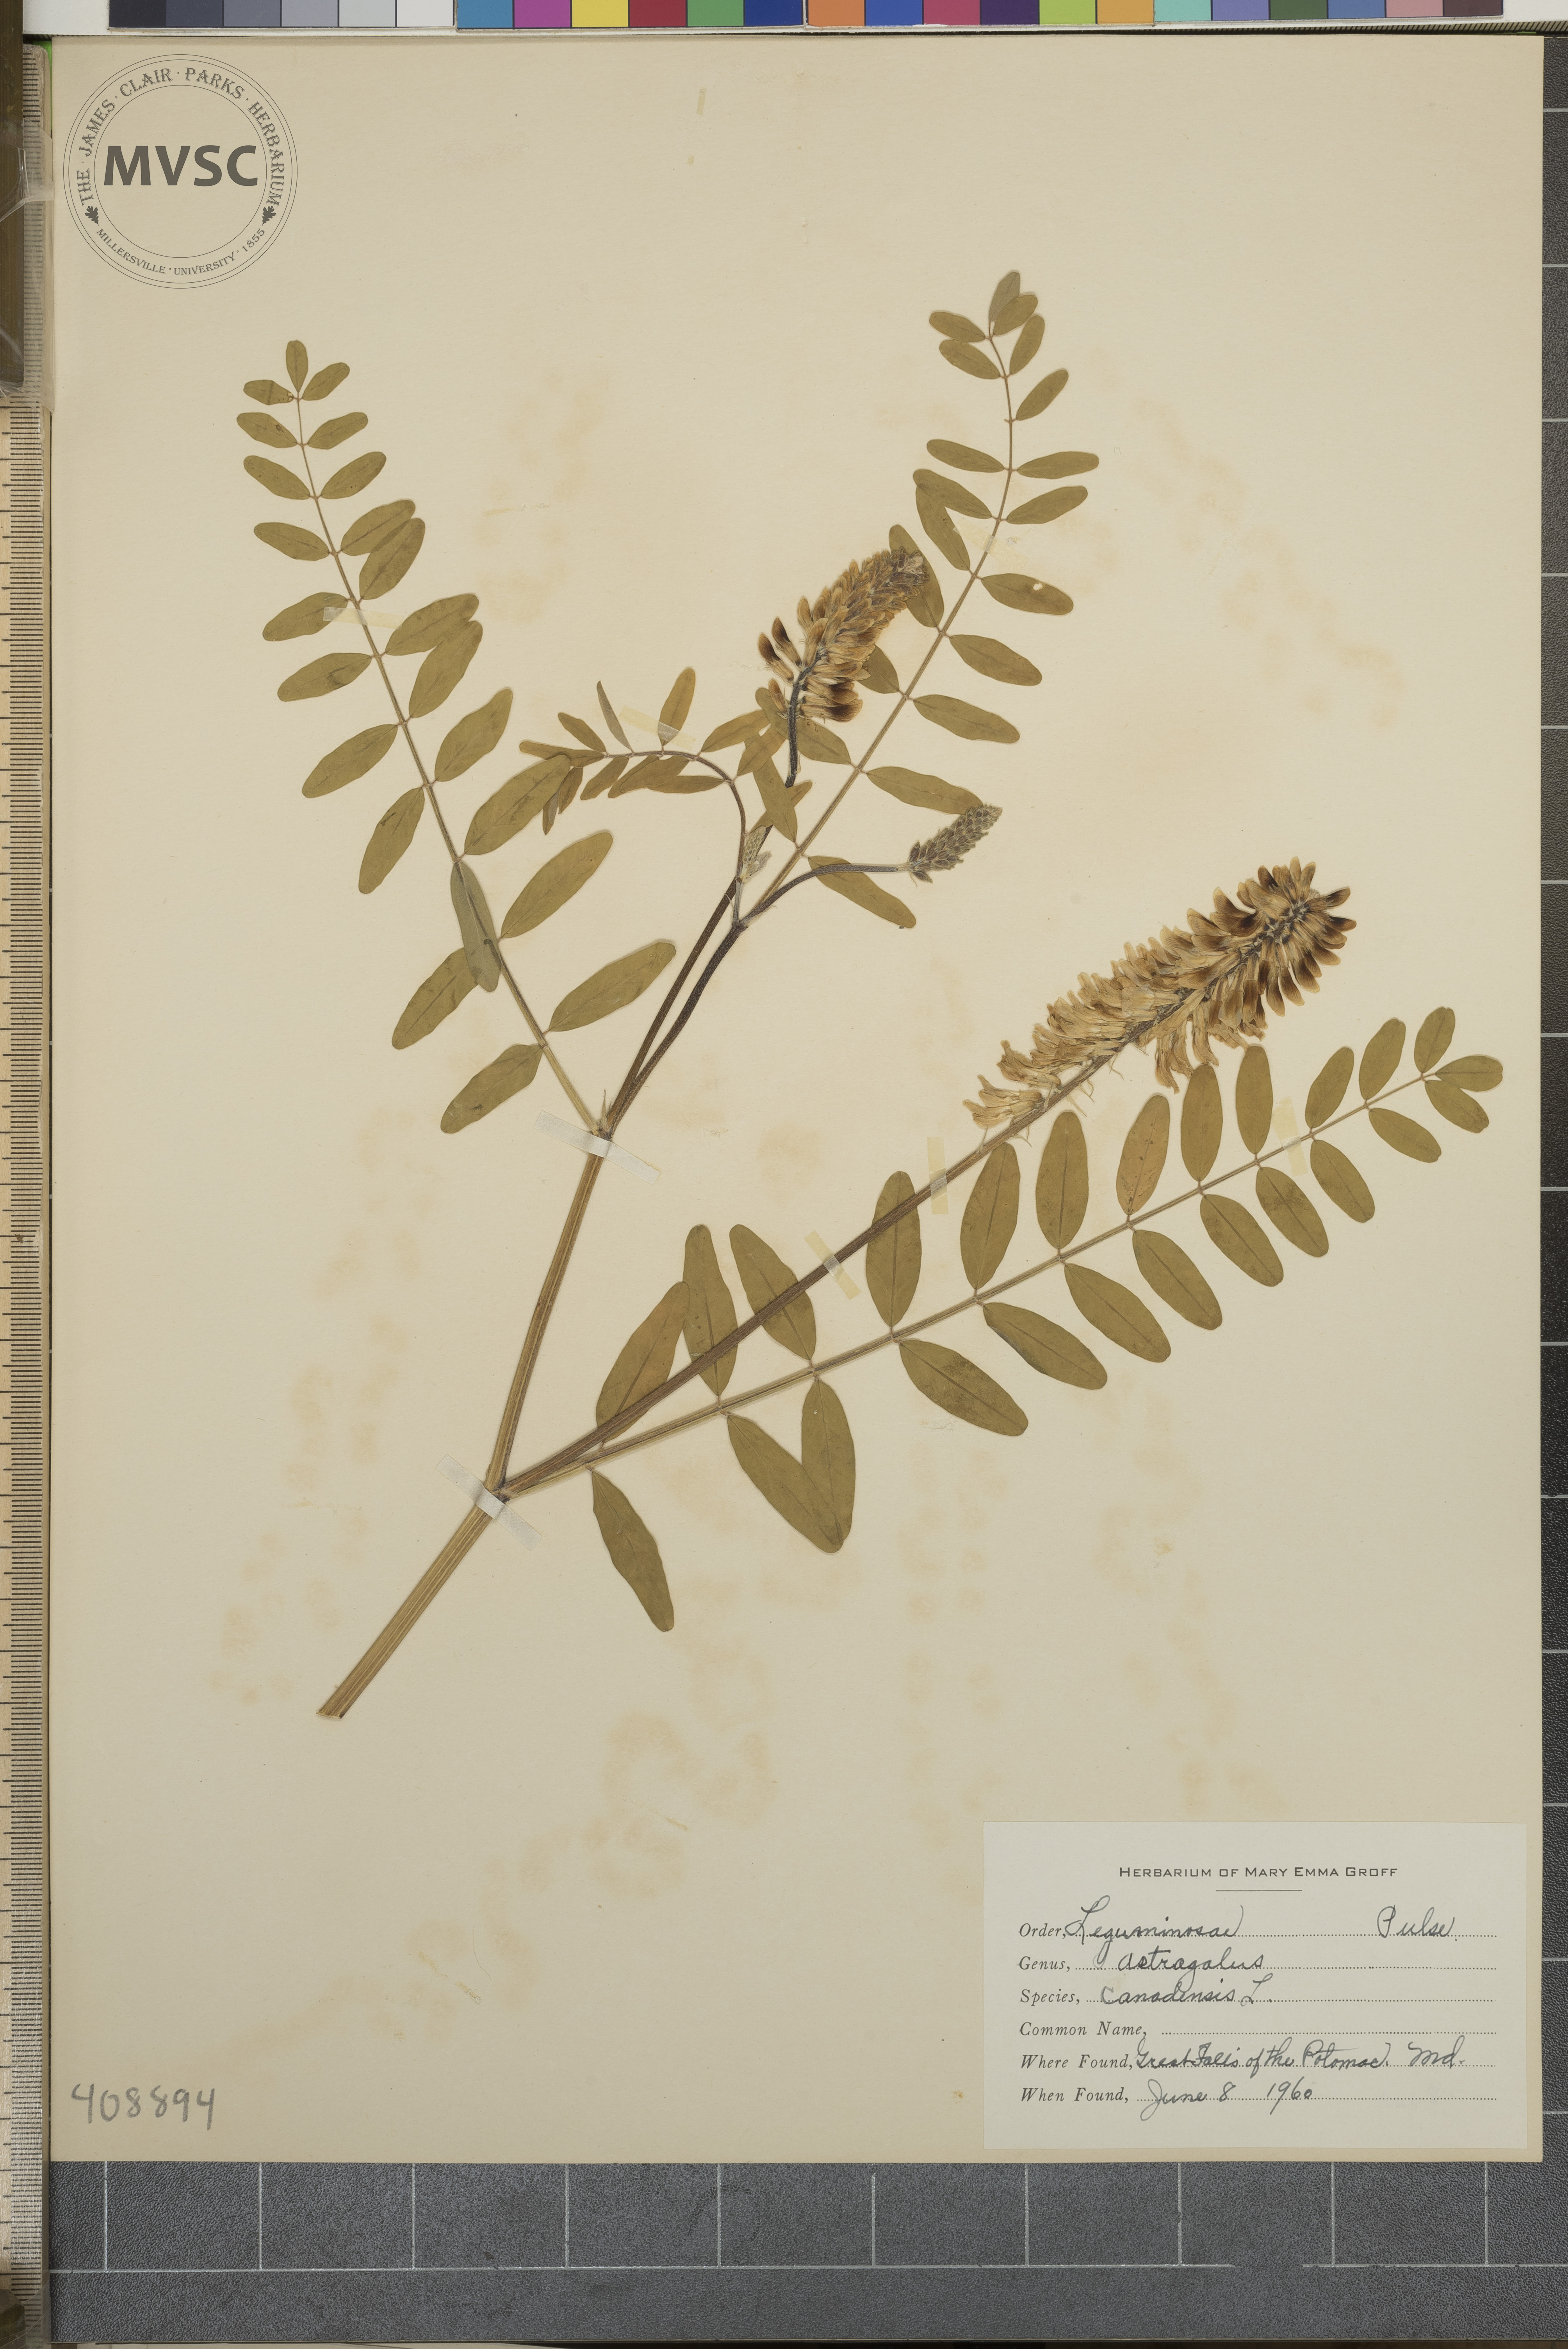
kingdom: Plantae
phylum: Tracheophyta
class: Magnoliopsida
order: Fabales
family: Fabaceae
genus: Astragalus
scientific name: Astragalus canadensis
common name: Canada milk-vetch
